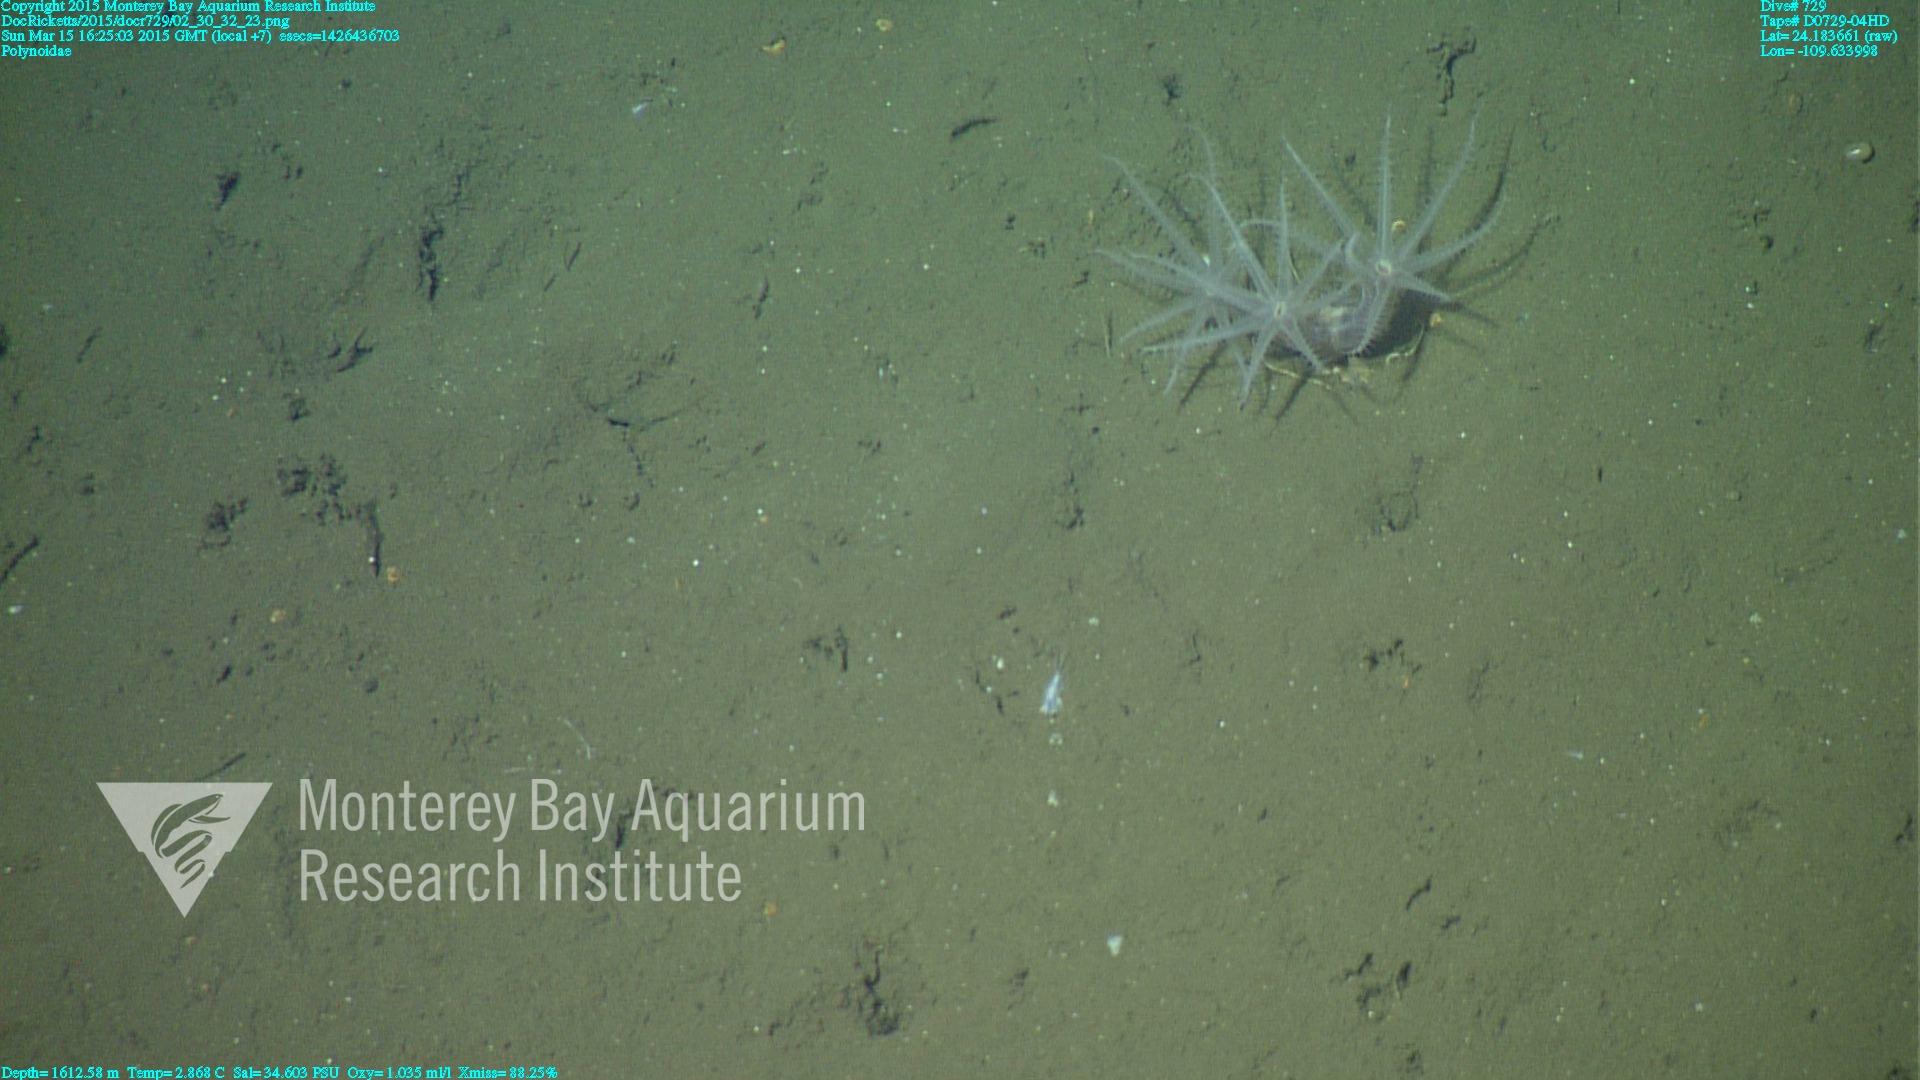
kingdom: Animalia
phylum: Cnidaria
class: Anthozoa
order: Scleralcyonacea
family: Coralliidae
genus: Bathyalcyon
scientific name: Bathyalcyon robustum
